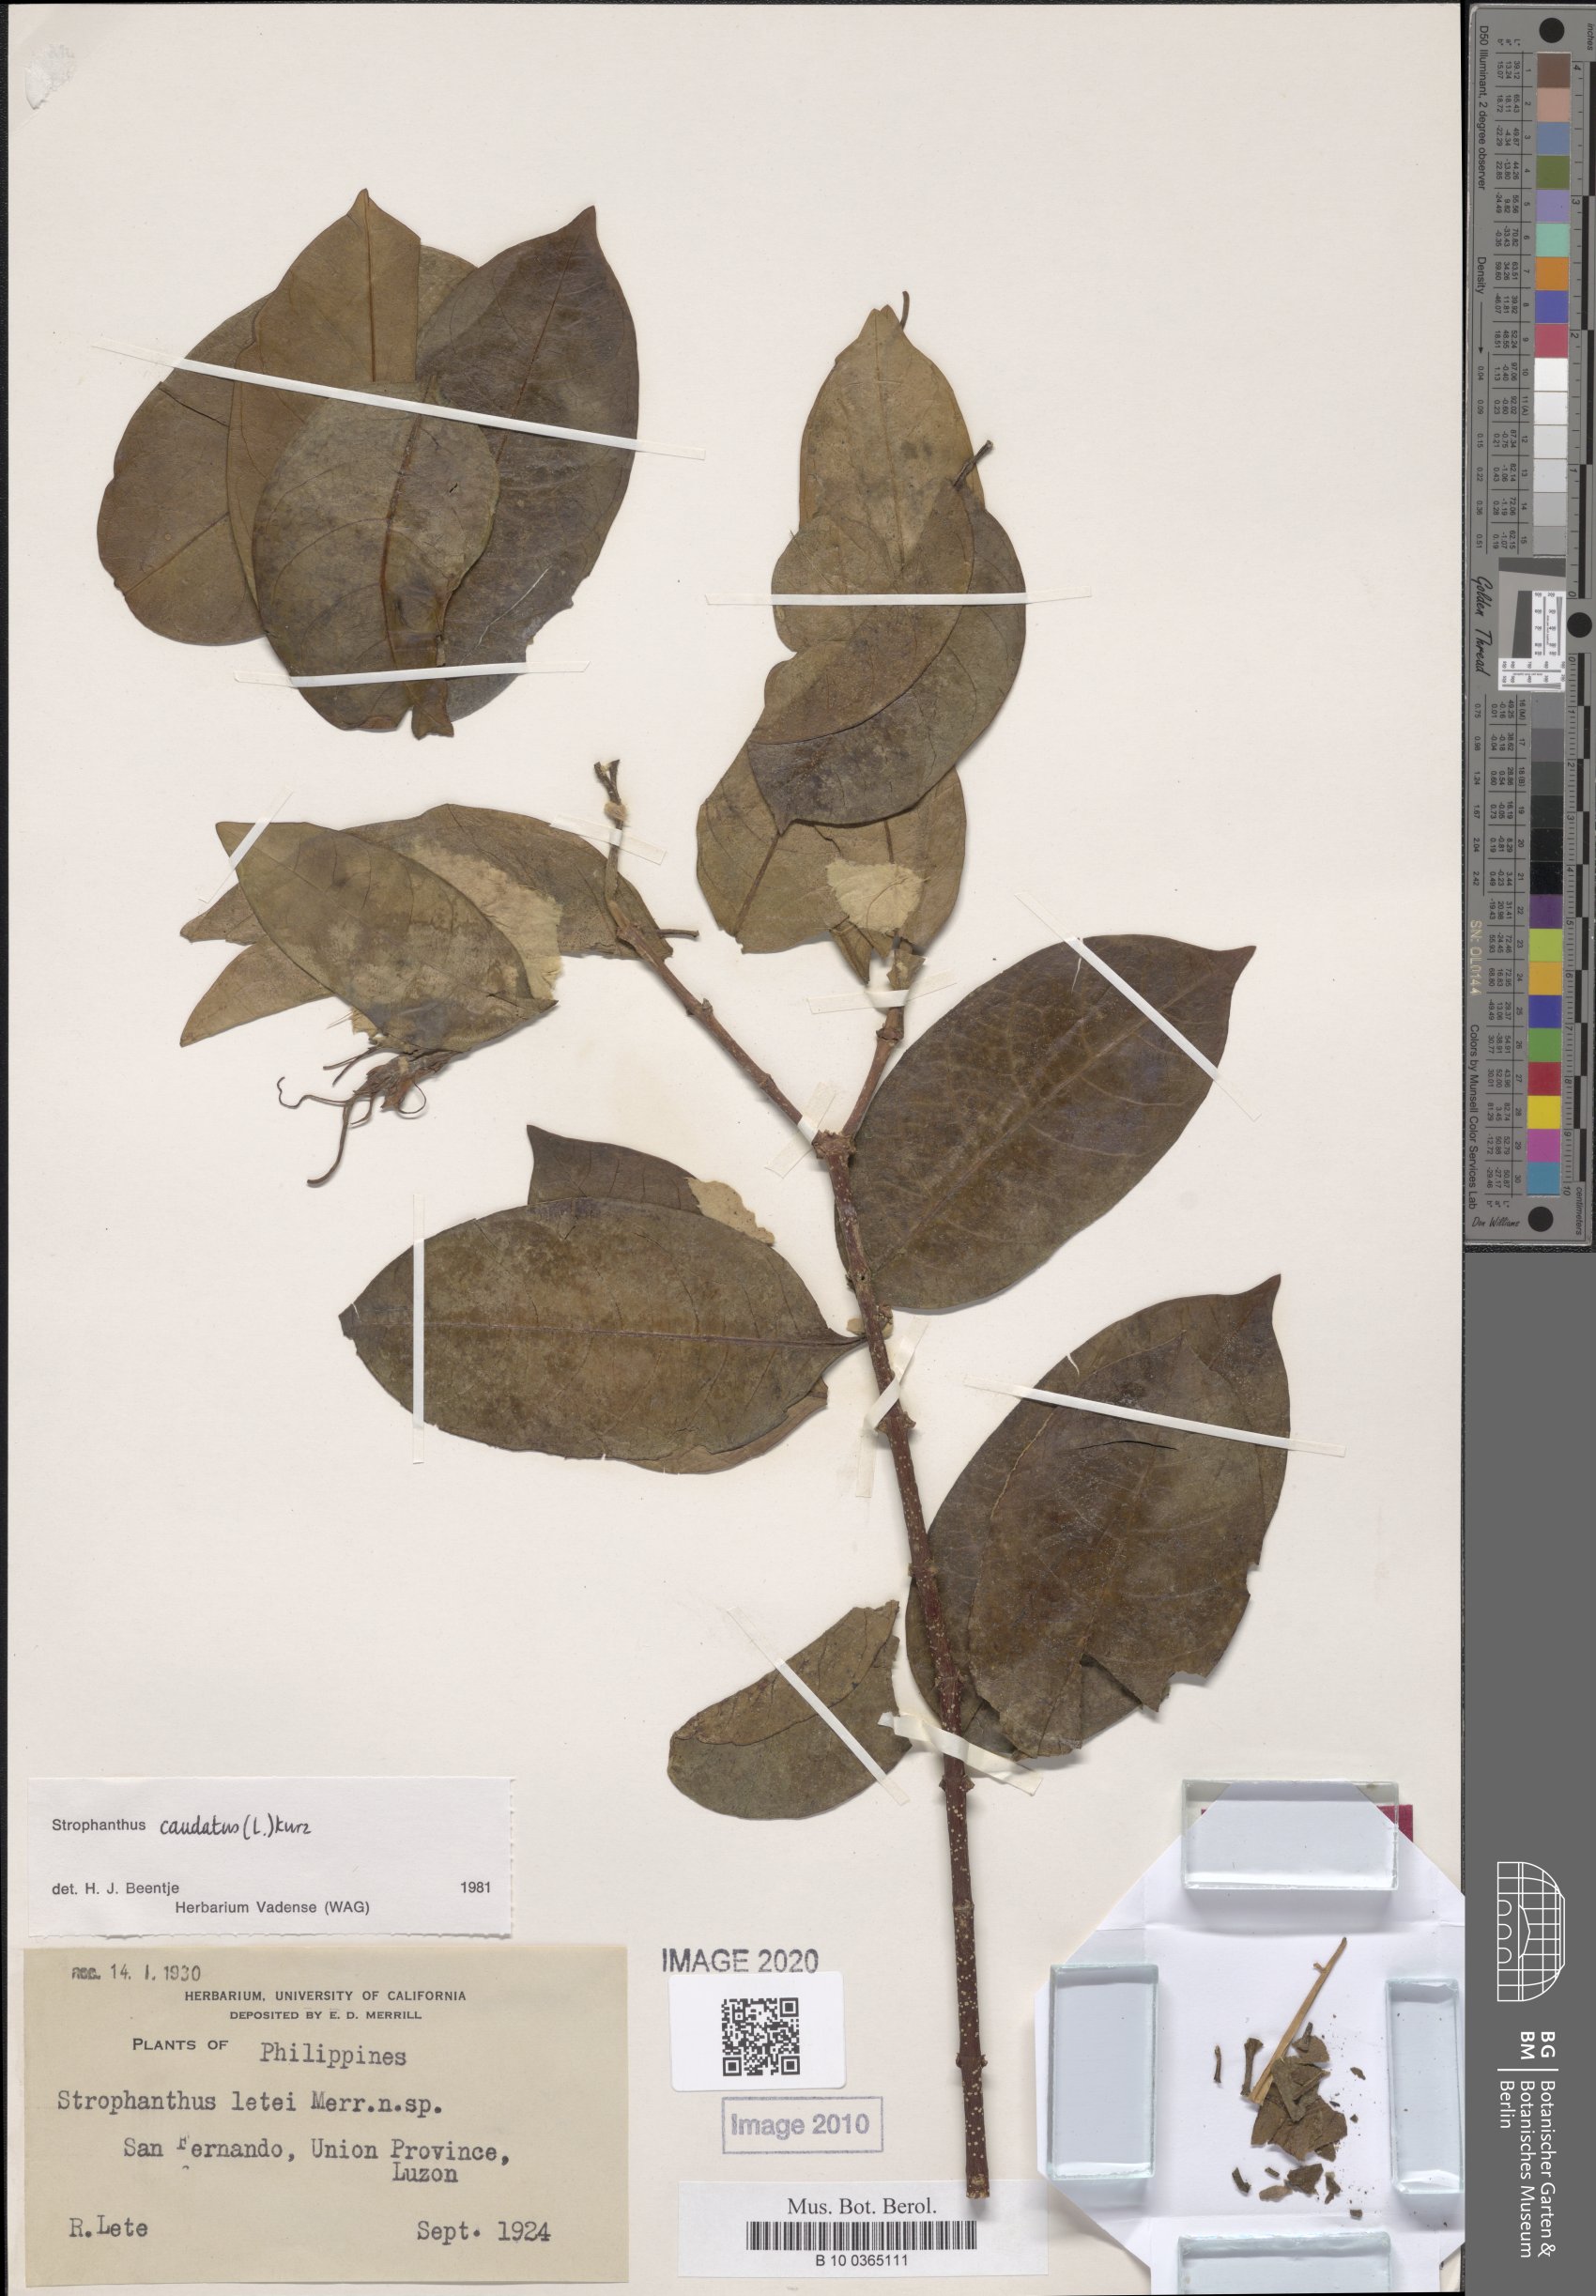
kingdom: Plantae
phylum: Tracheophyta
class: Magnoliopsida
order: Gentianales
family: Apocynaceae
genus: Strophanthus
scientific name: Strophanthus caudatus
